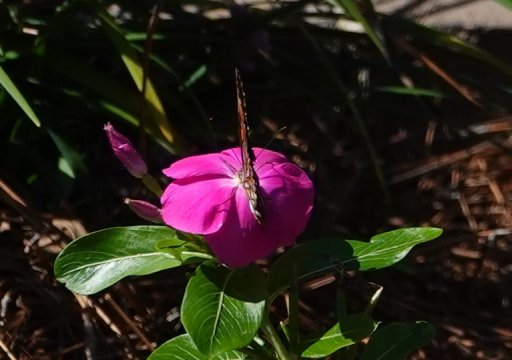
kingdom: Animalia
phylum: Arthropoda
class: Insecta
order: Lepidoptera
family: Nymphalidae
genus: Dione
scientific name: Dione vanillae
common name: Gulf Fritillary
